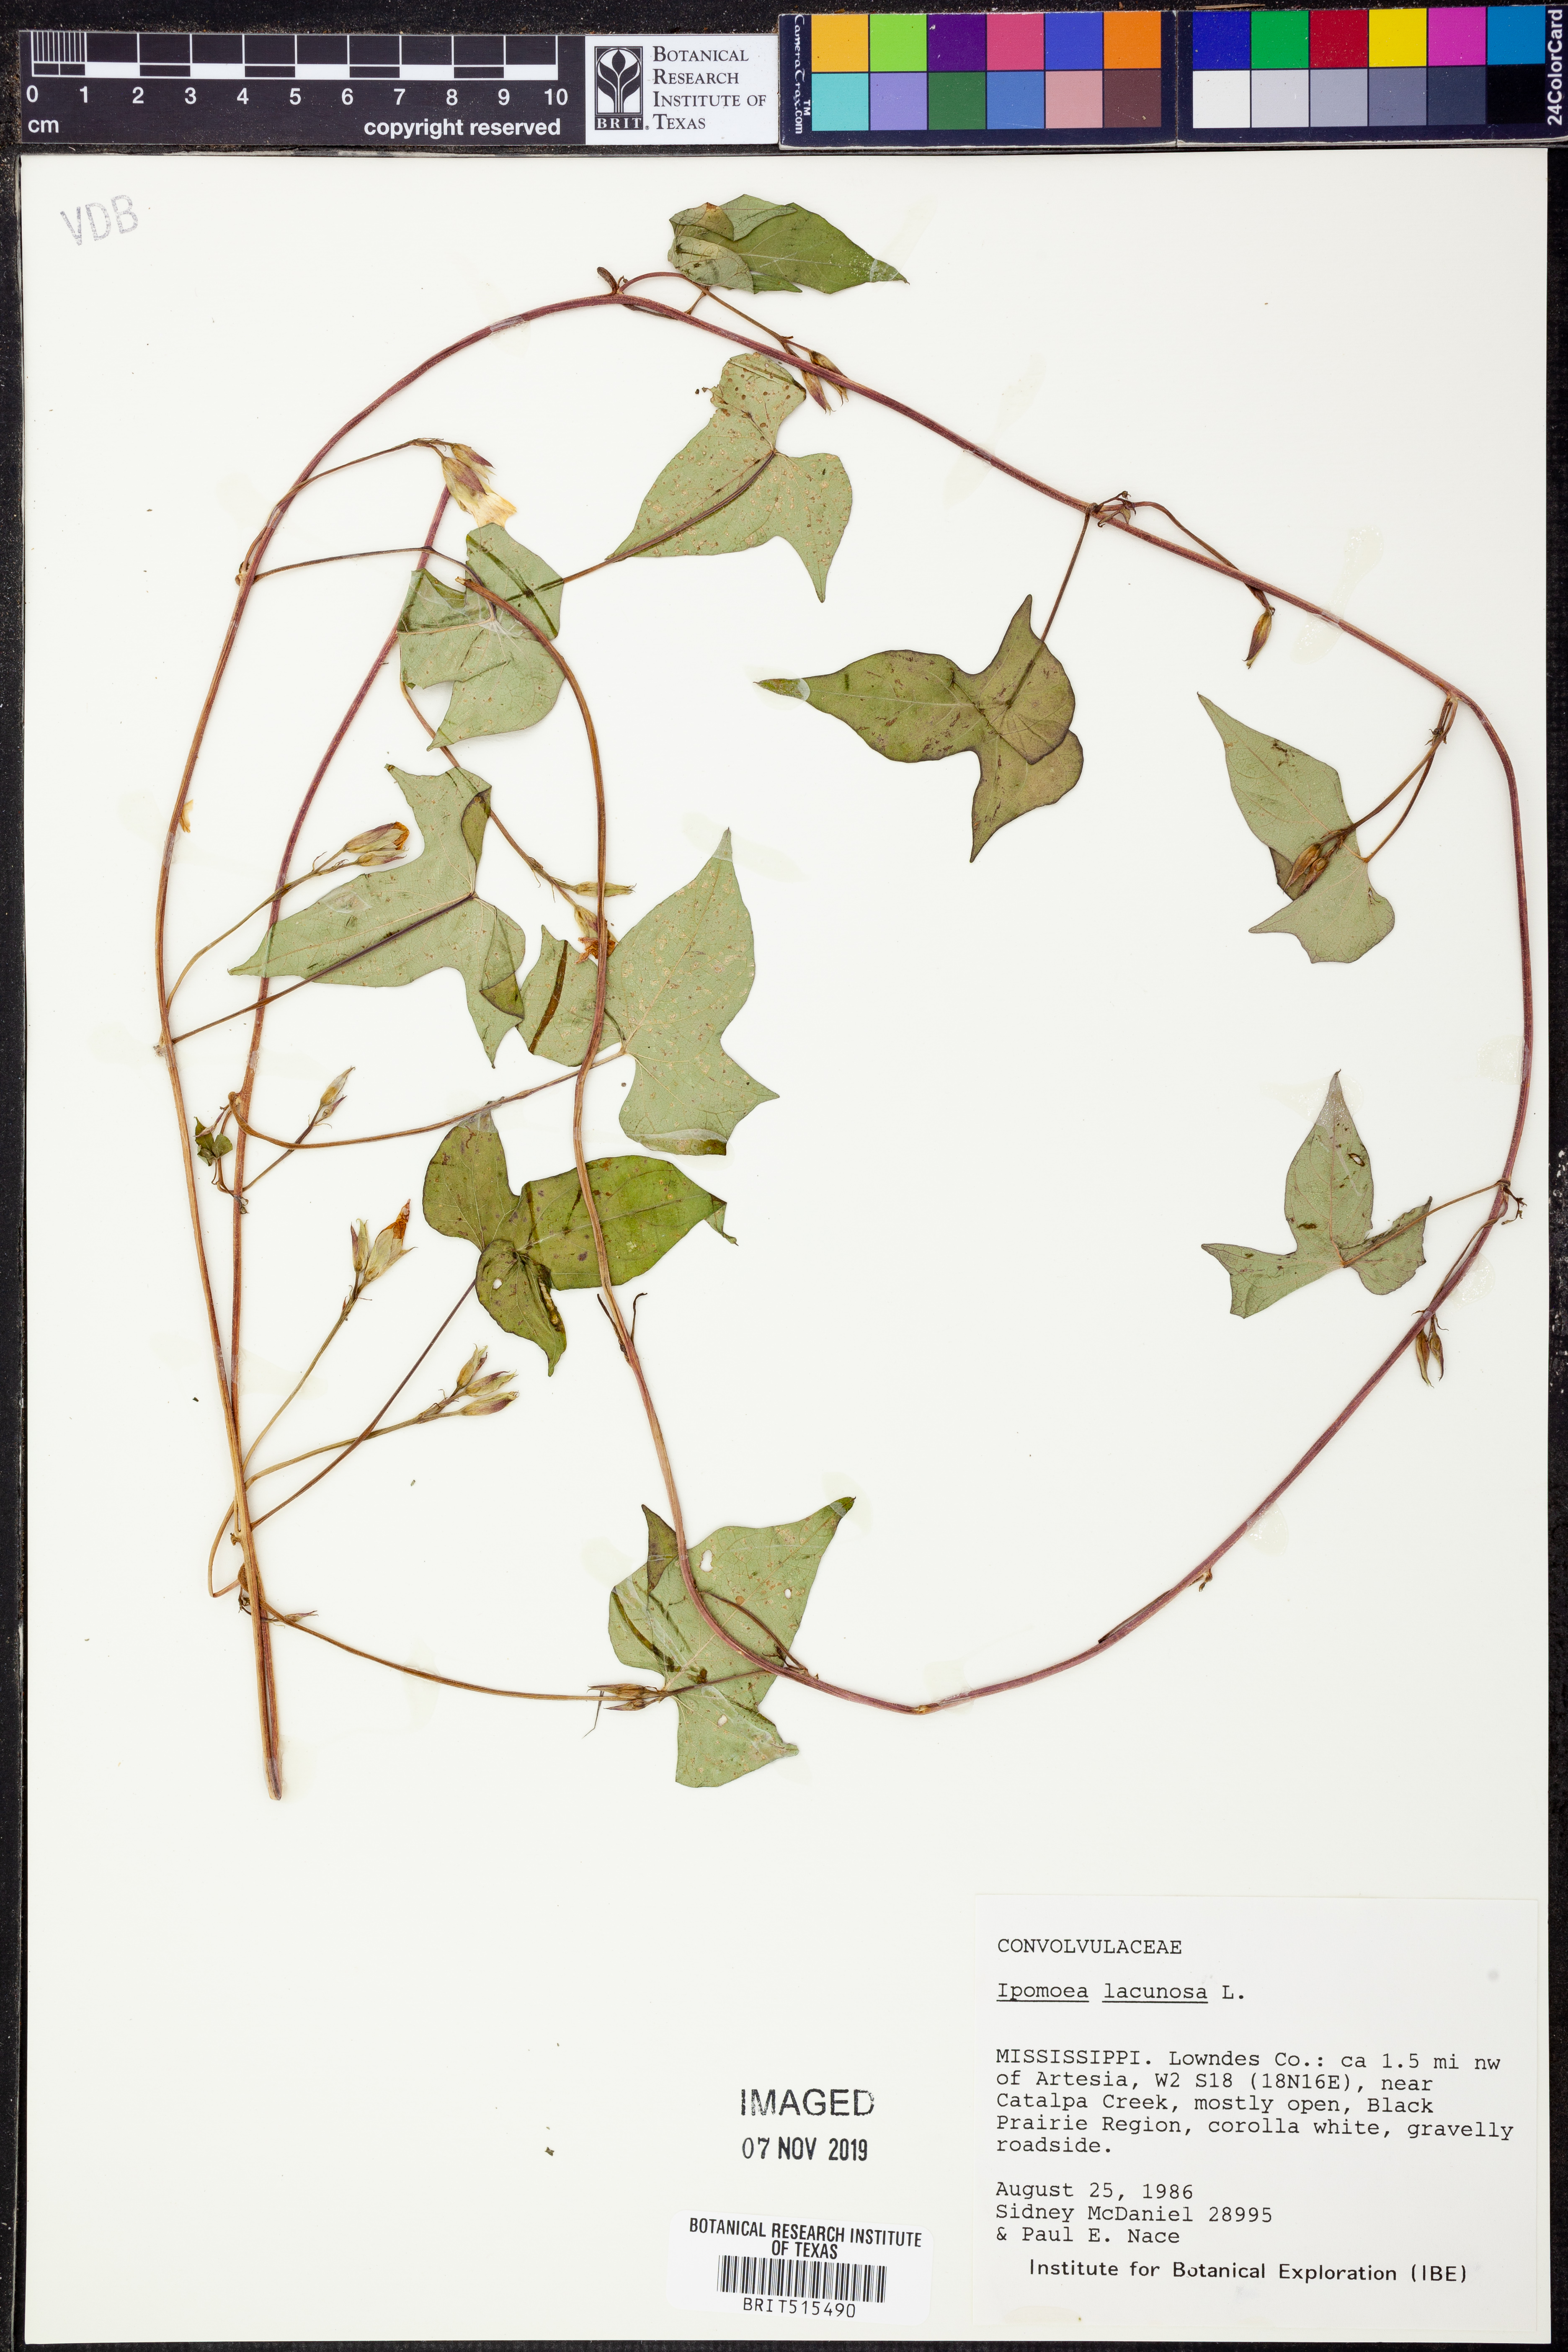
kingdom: Plantae
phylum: Tracheophyta
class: Magnoliopsida
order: Solanales
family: Convolvulaceae
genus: Ipomoea
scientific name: Ipomoea lacunosa
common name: White morning-glory
